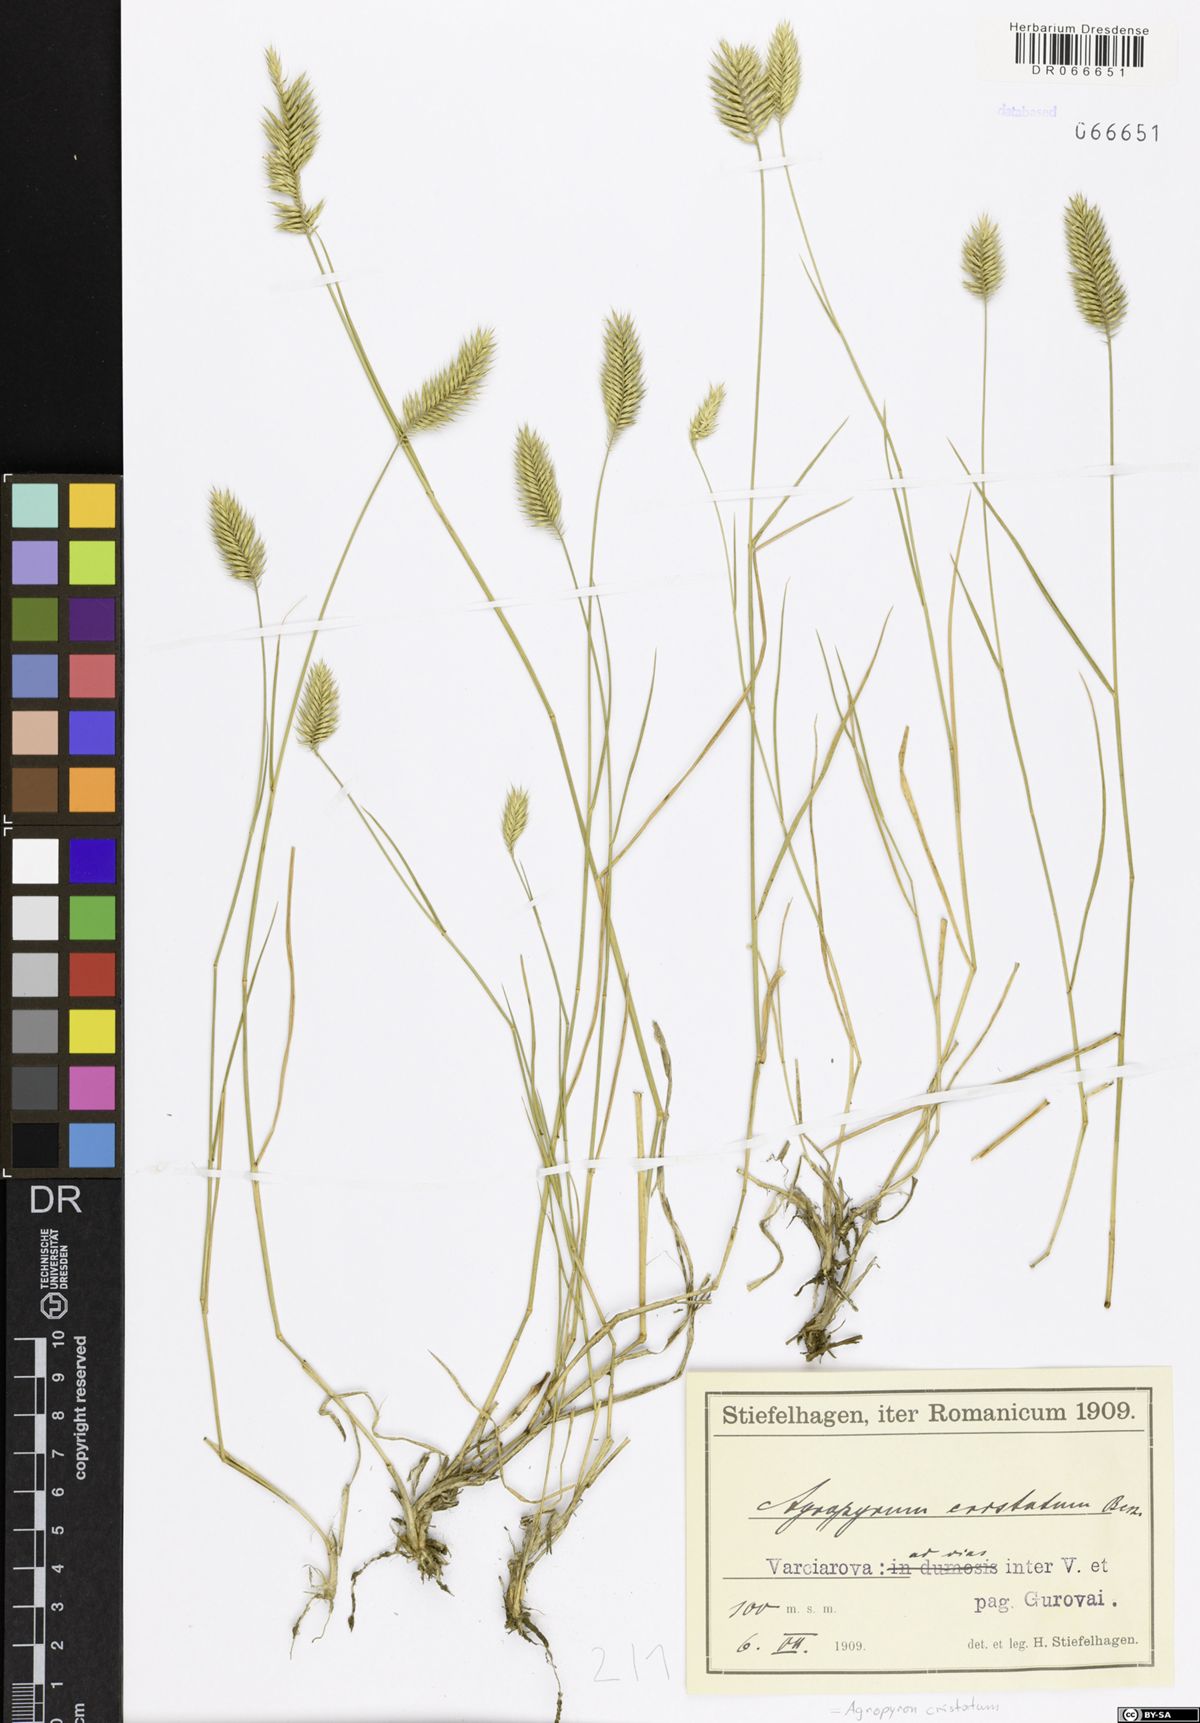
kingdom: Plantae
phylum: Tracheophyta
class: Liliopsida
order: Poales
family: Poaceae
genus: Agropyron
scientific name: Agropyron cristatum
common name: Crested wheatgrass
